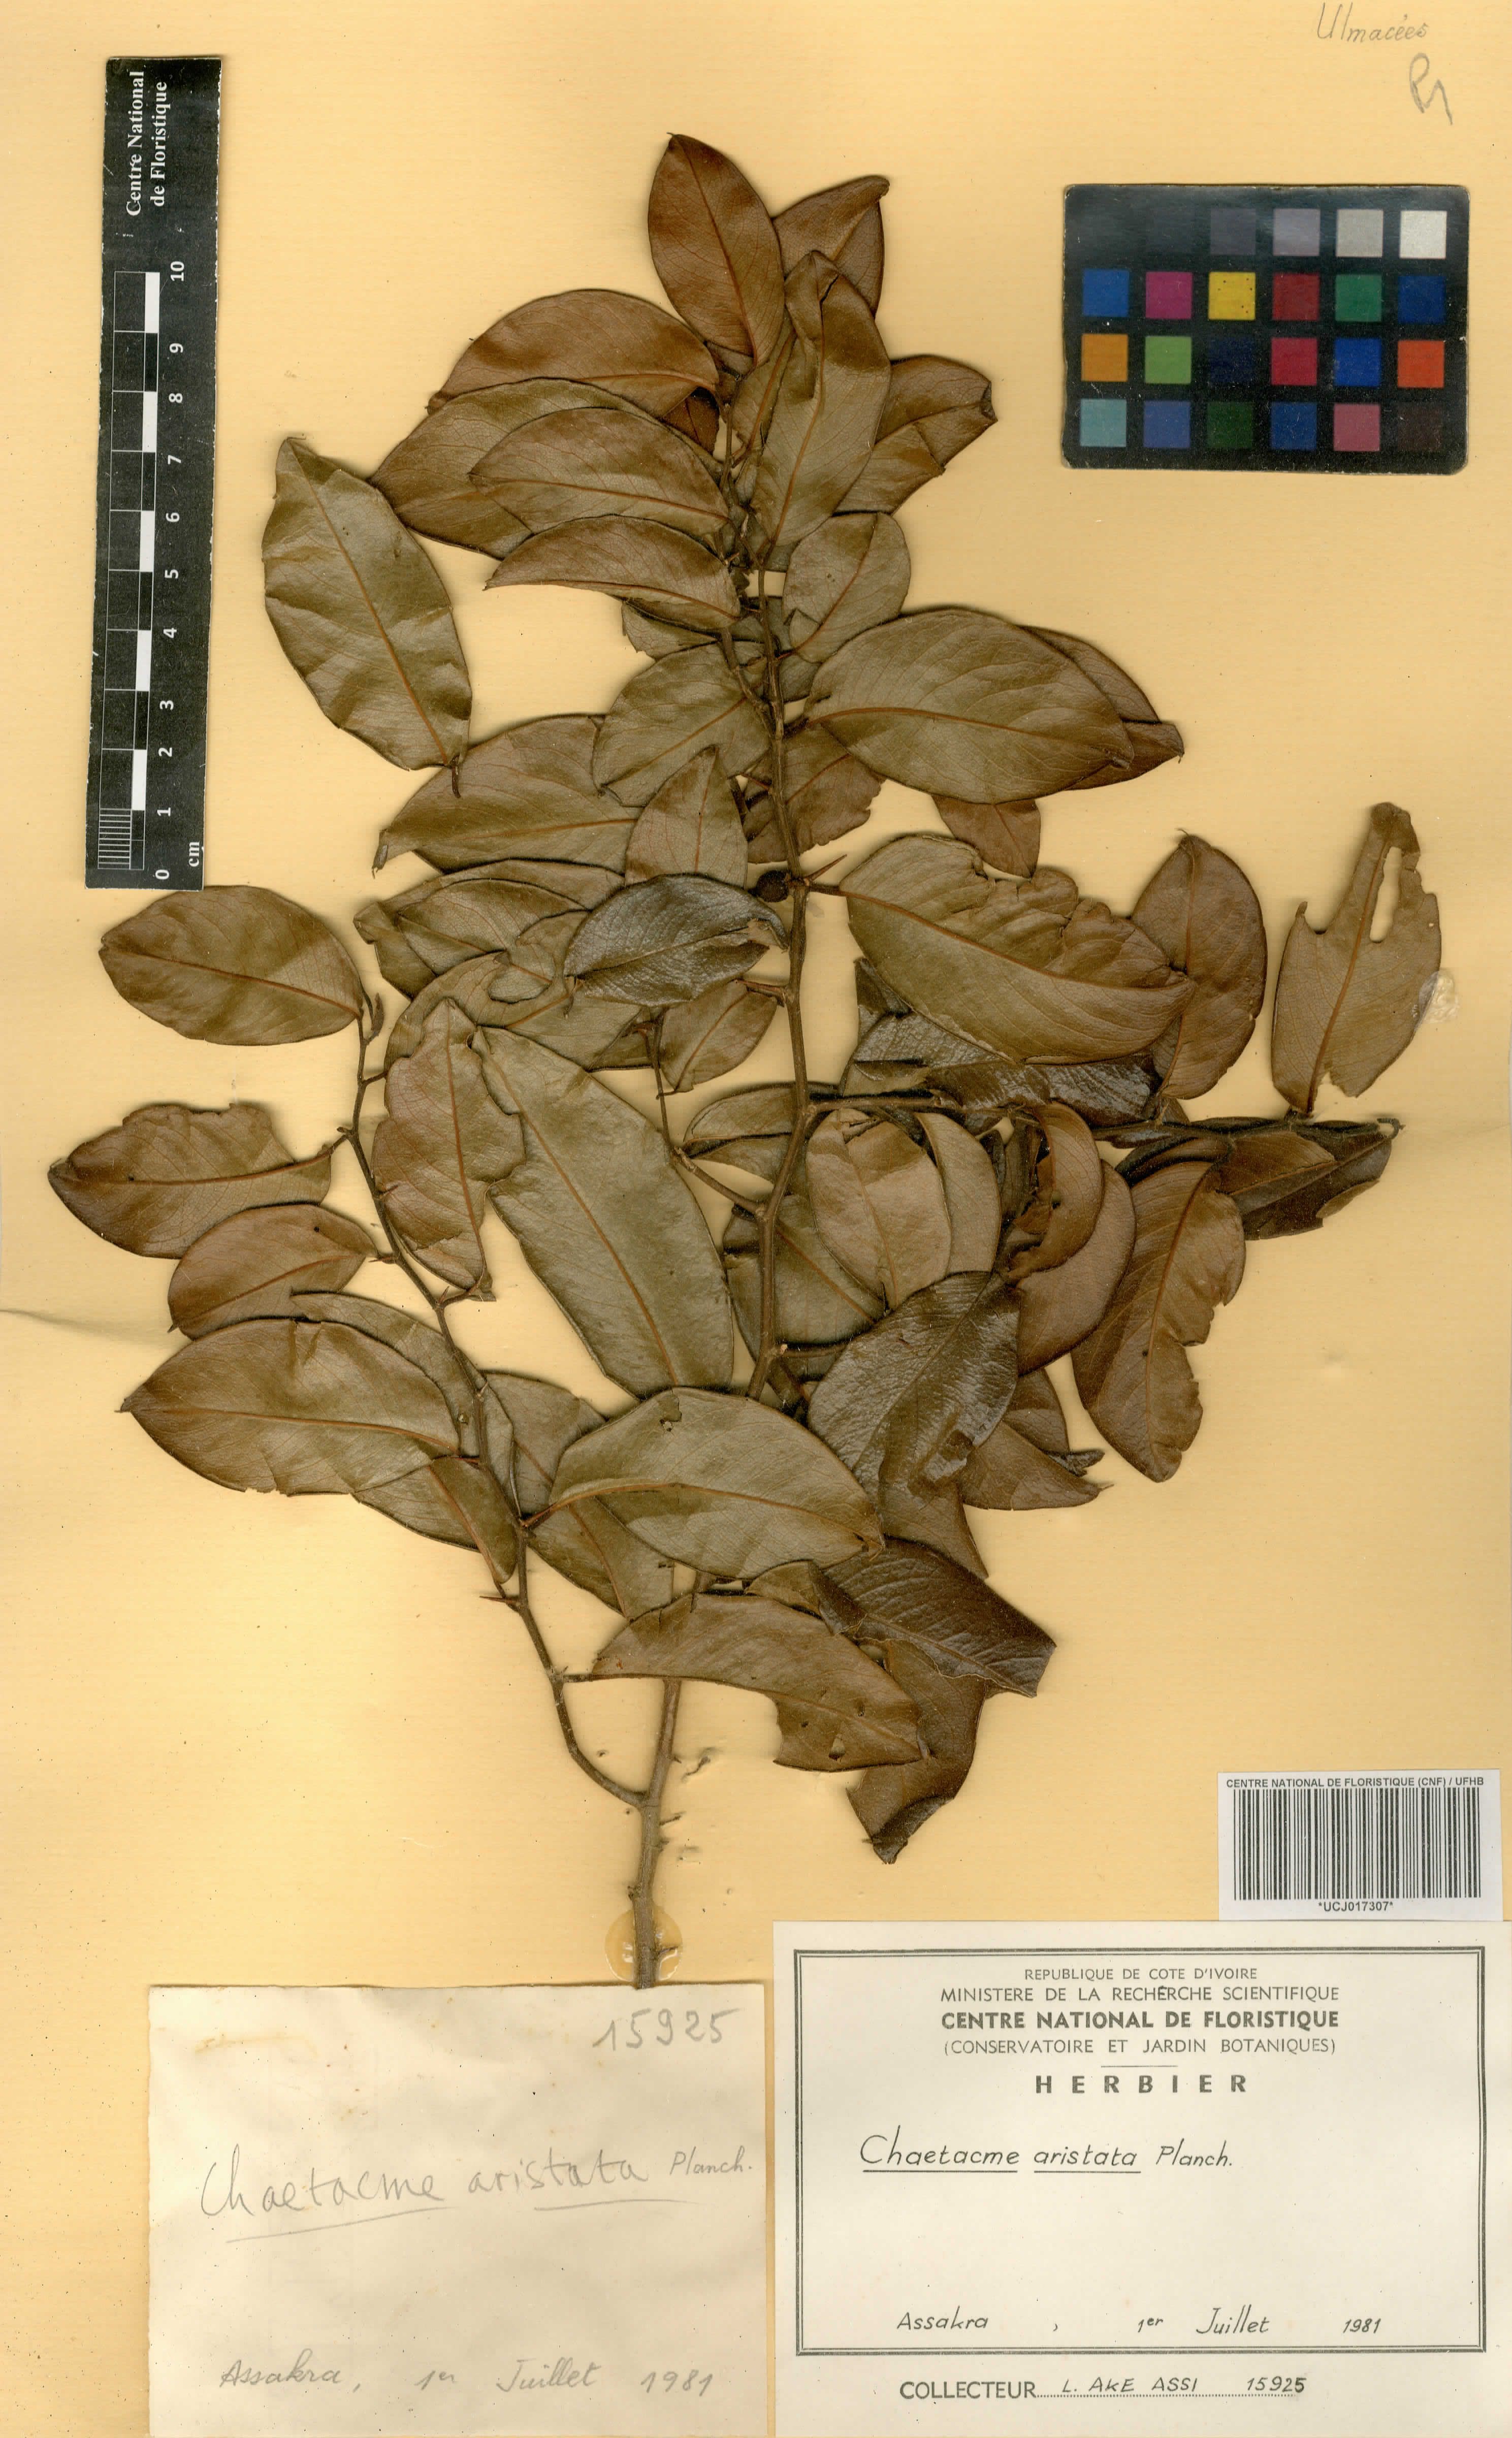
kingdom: Plantae
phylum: Tracheophyta
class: Magnoliopsida
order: Rosales
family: Cannabaceae
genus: Chaetachme
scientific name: Chaetachme aristata
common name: Thorny elm
